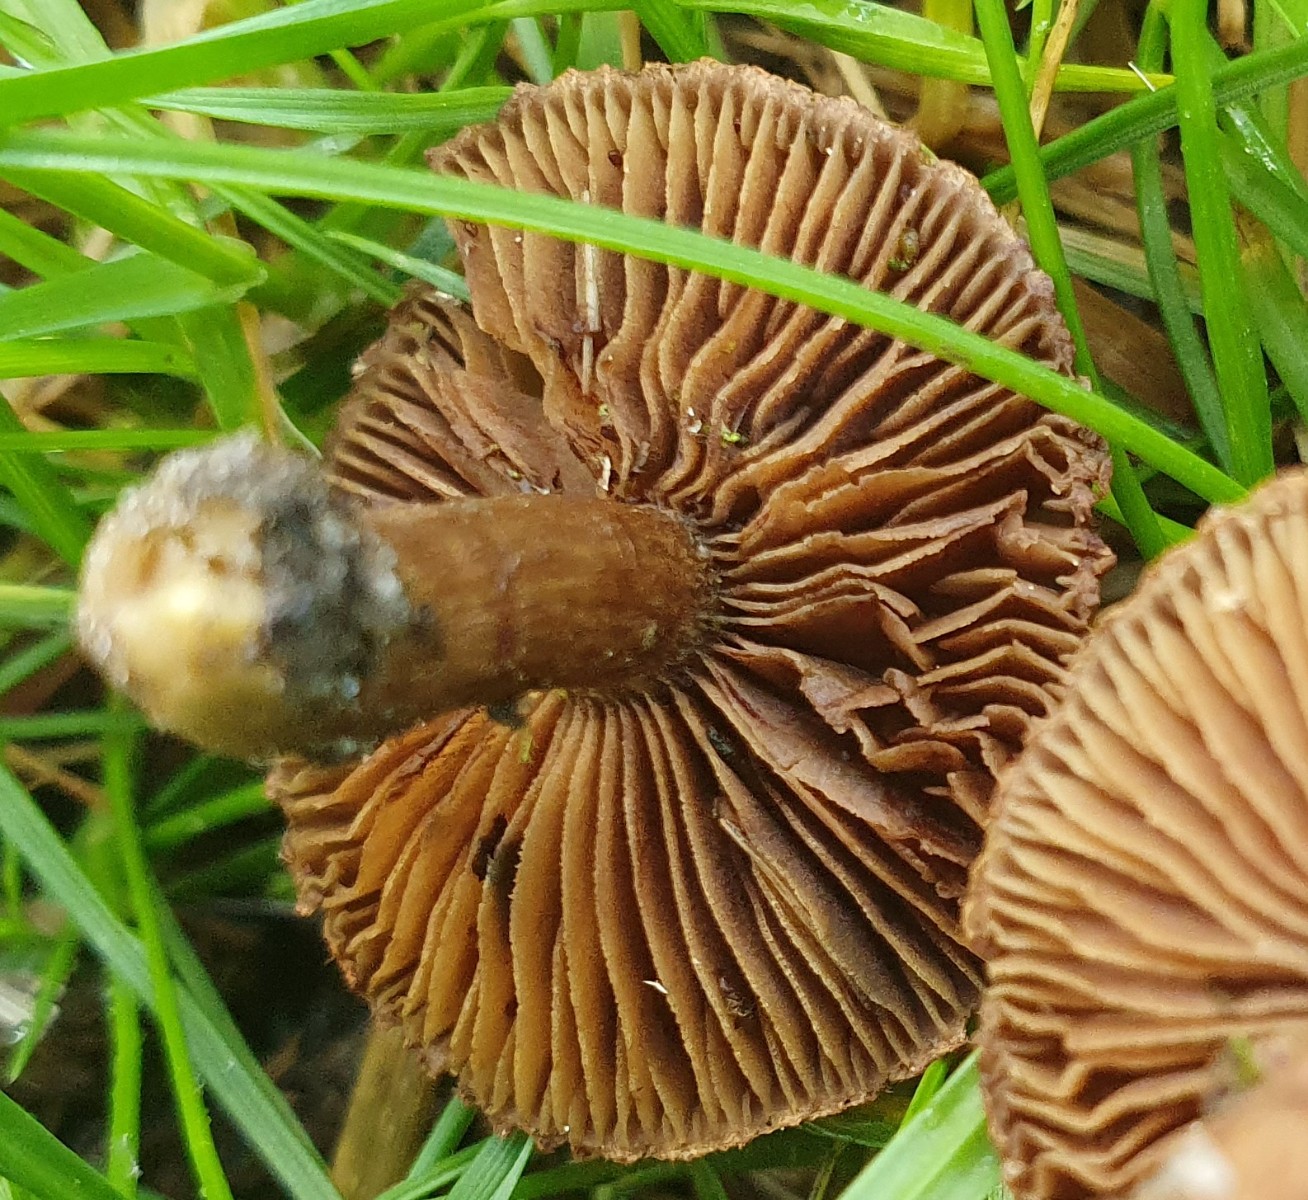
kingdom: Fungi
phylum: Basidiomycota
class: Agaricomycetes
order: Agaricales
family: Inocybaceae
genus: Inocybe
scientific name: Inocybe dulcamara
